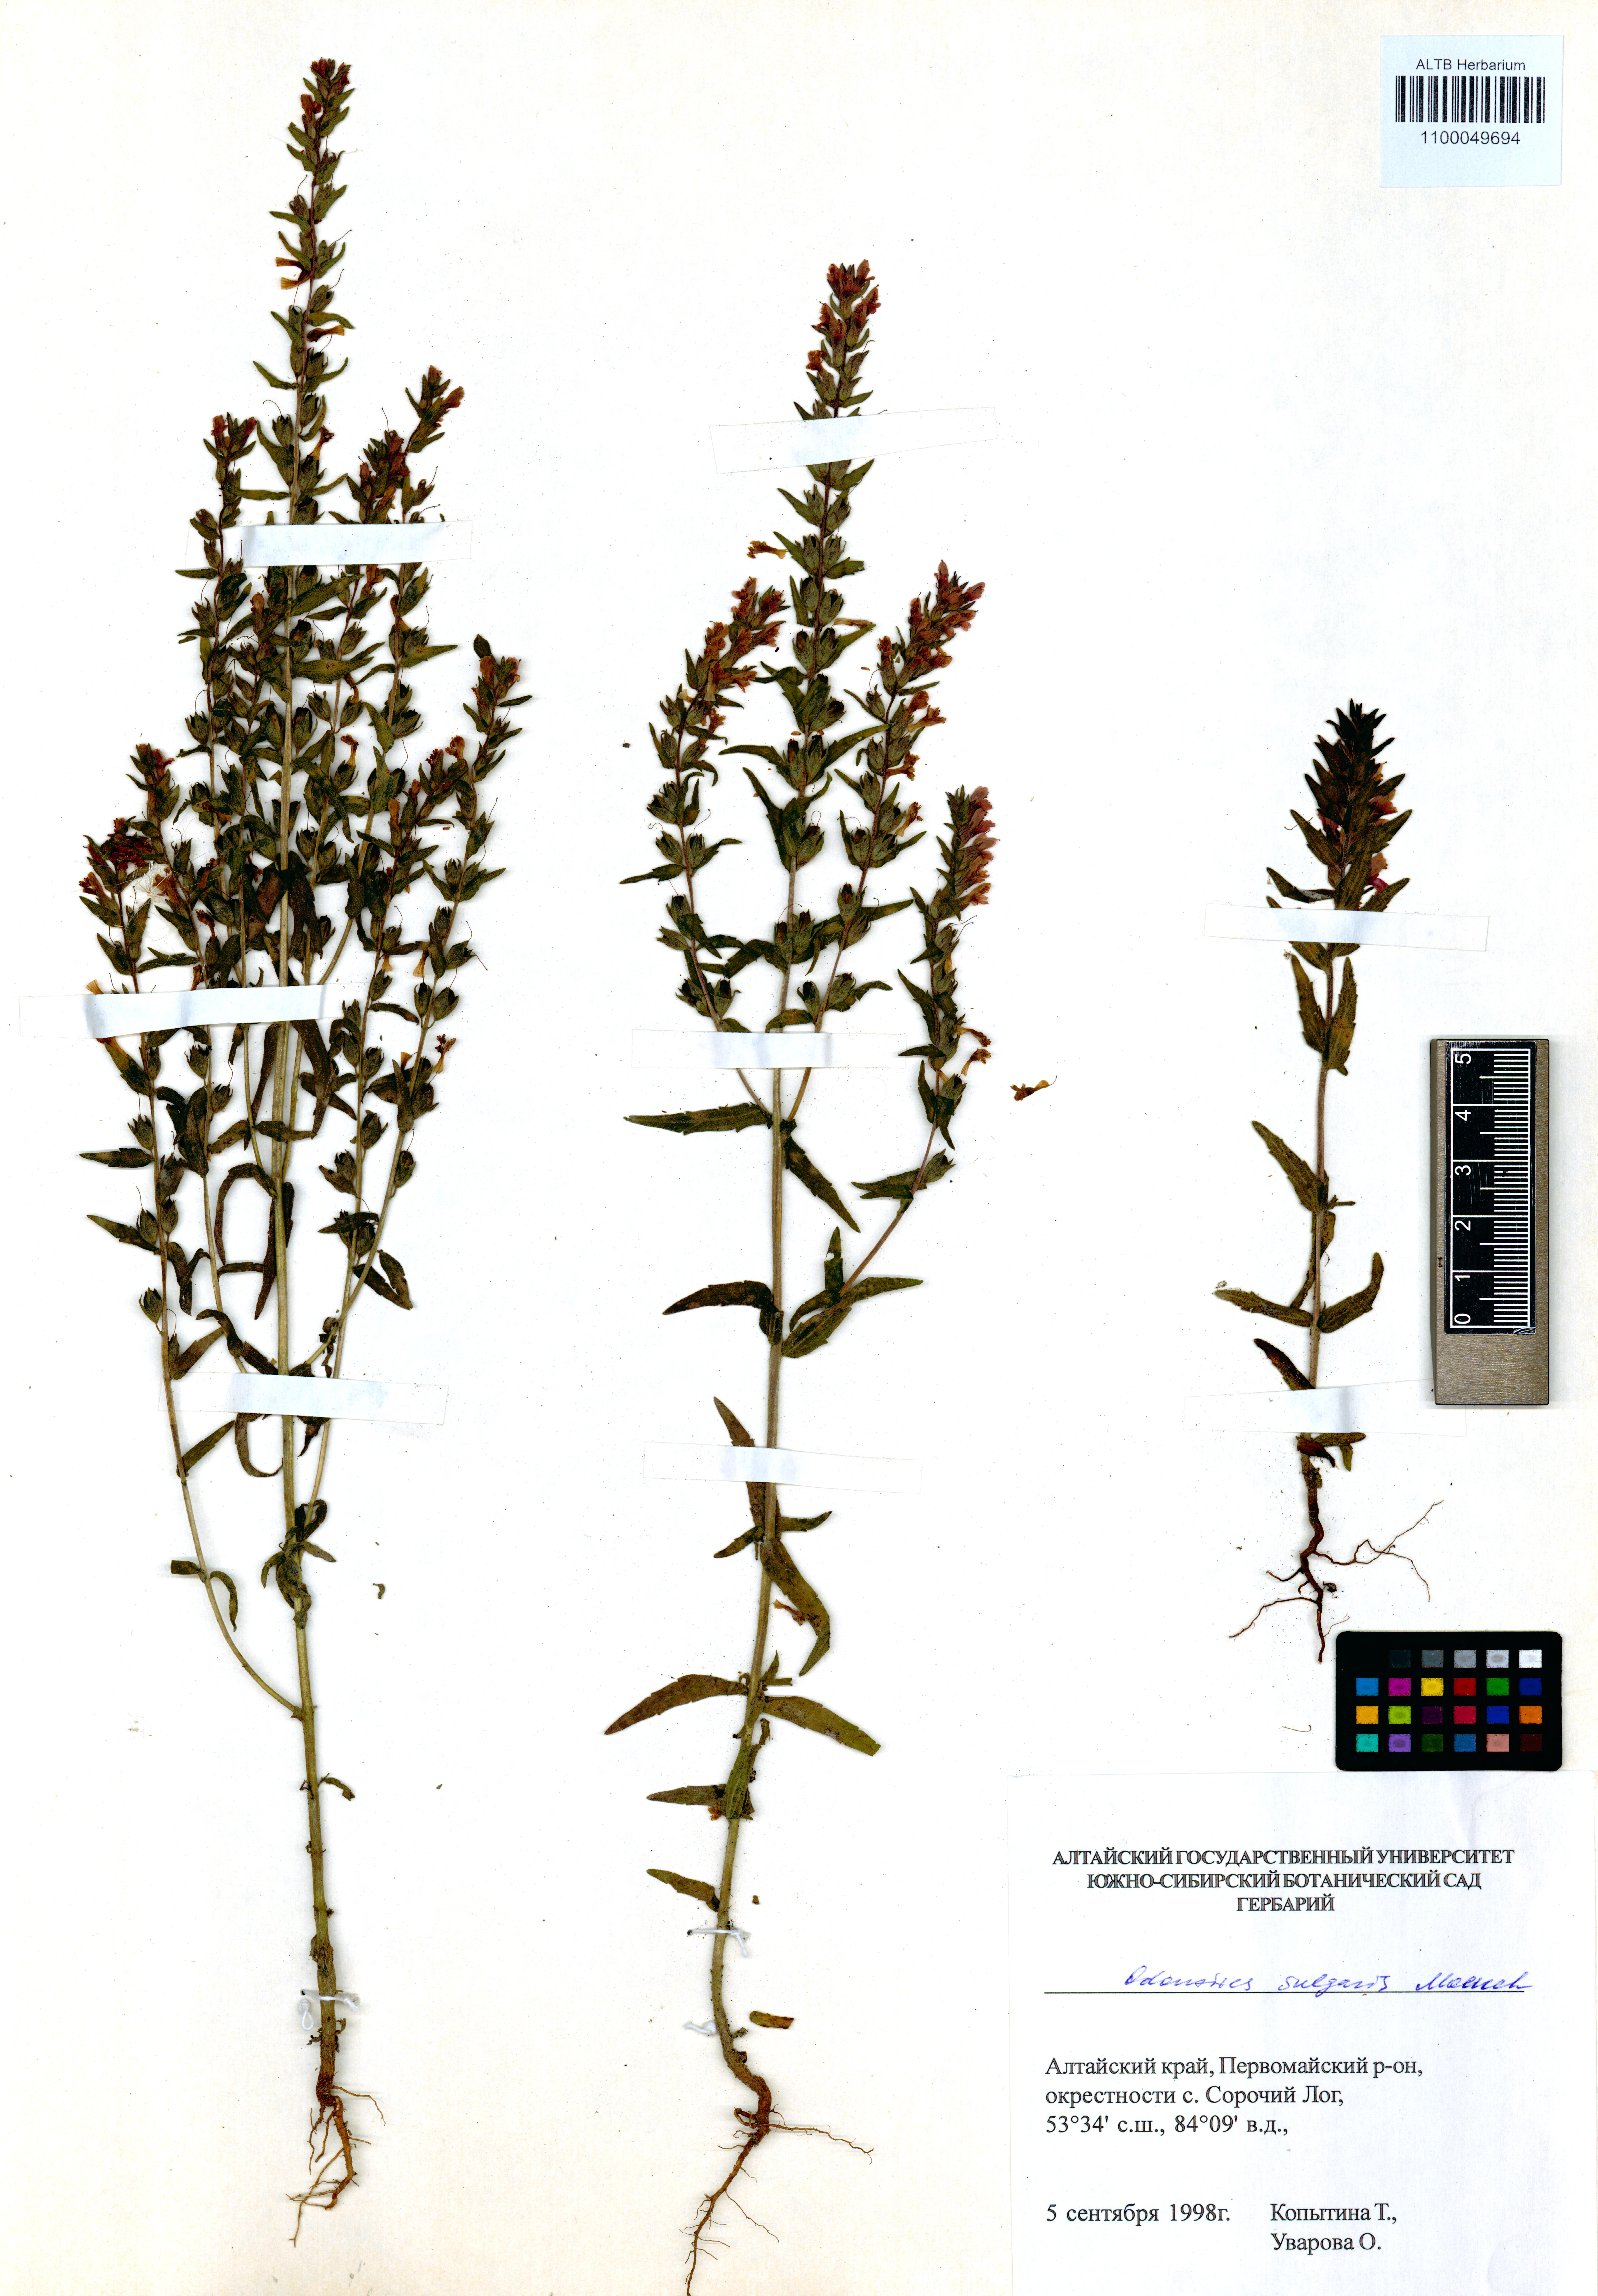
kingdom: Plantae
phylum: Tracheophyta
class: Magnoliopsida
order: Lamiales
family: Orobanchaceae
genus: Odontites
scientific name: Odontites vulgaris
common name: Broomrape
